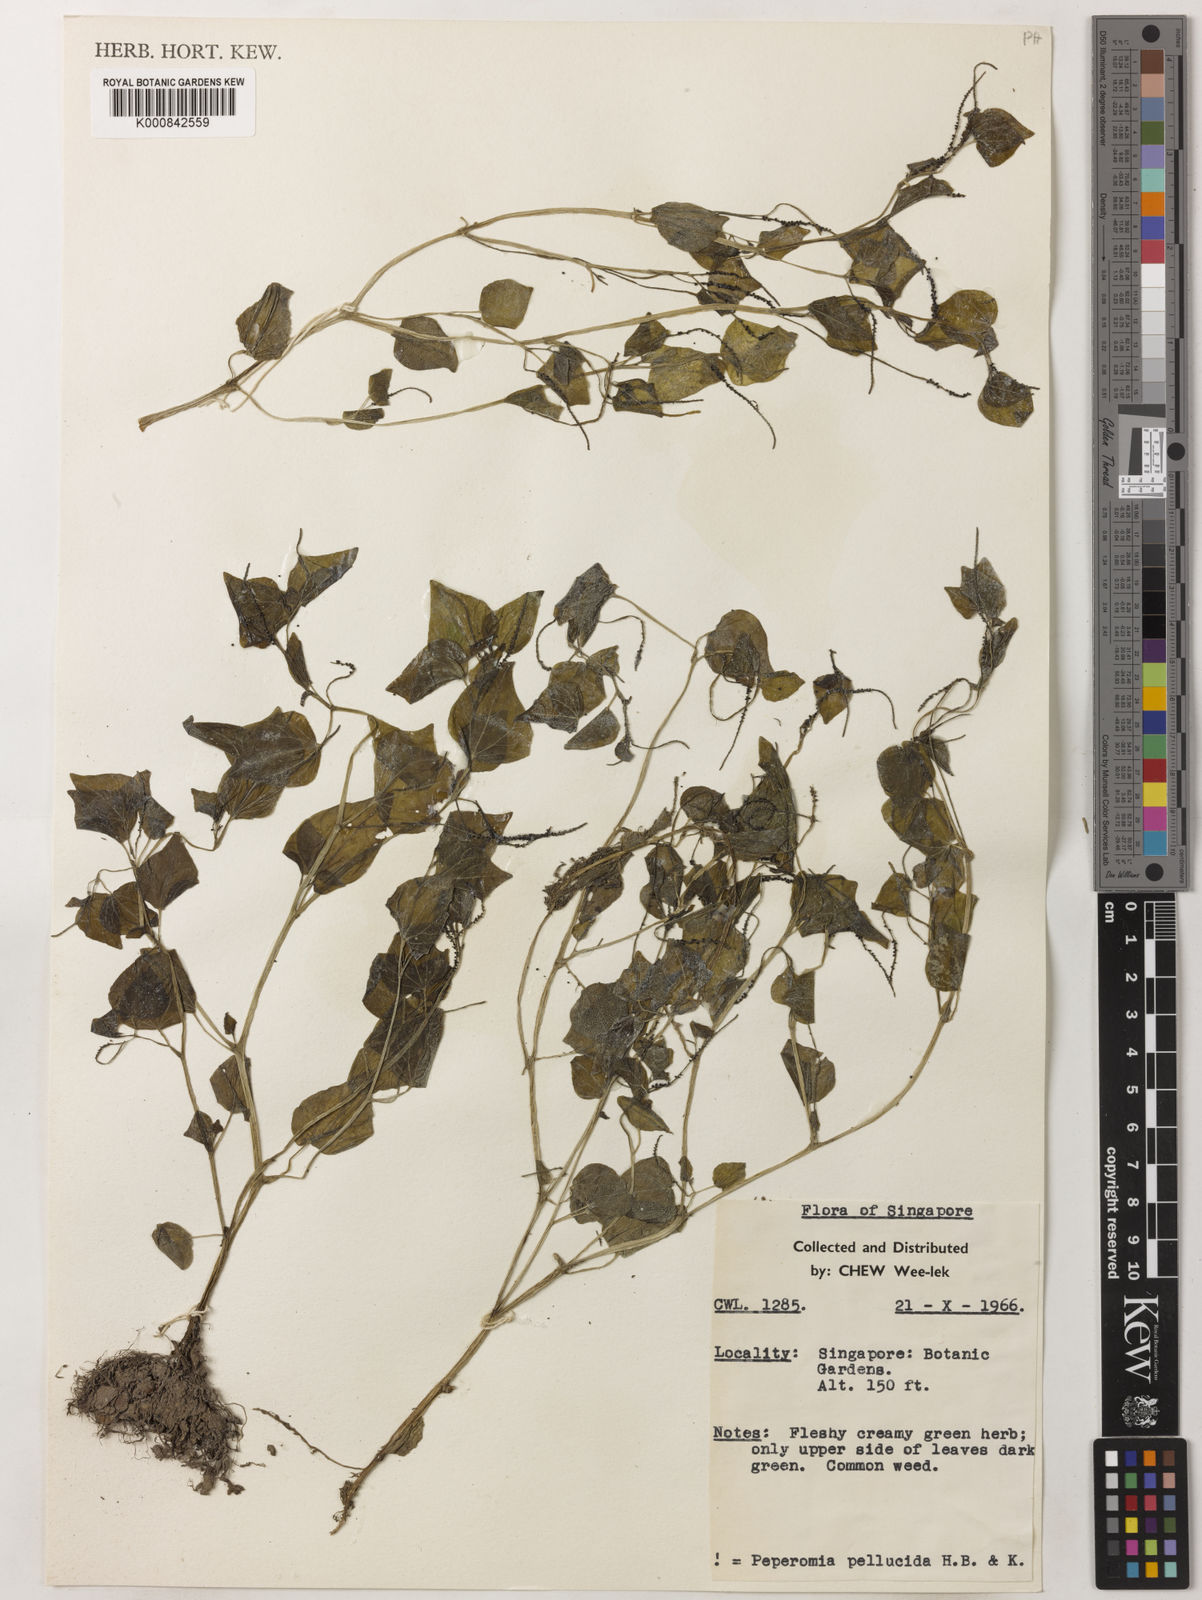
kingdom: Plantae
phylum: Tracheophyta
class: Magnoliopsida
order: Piperales
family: Piperaceae
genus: Peperomia
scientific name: Peperomia pellucida
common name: Man to man
